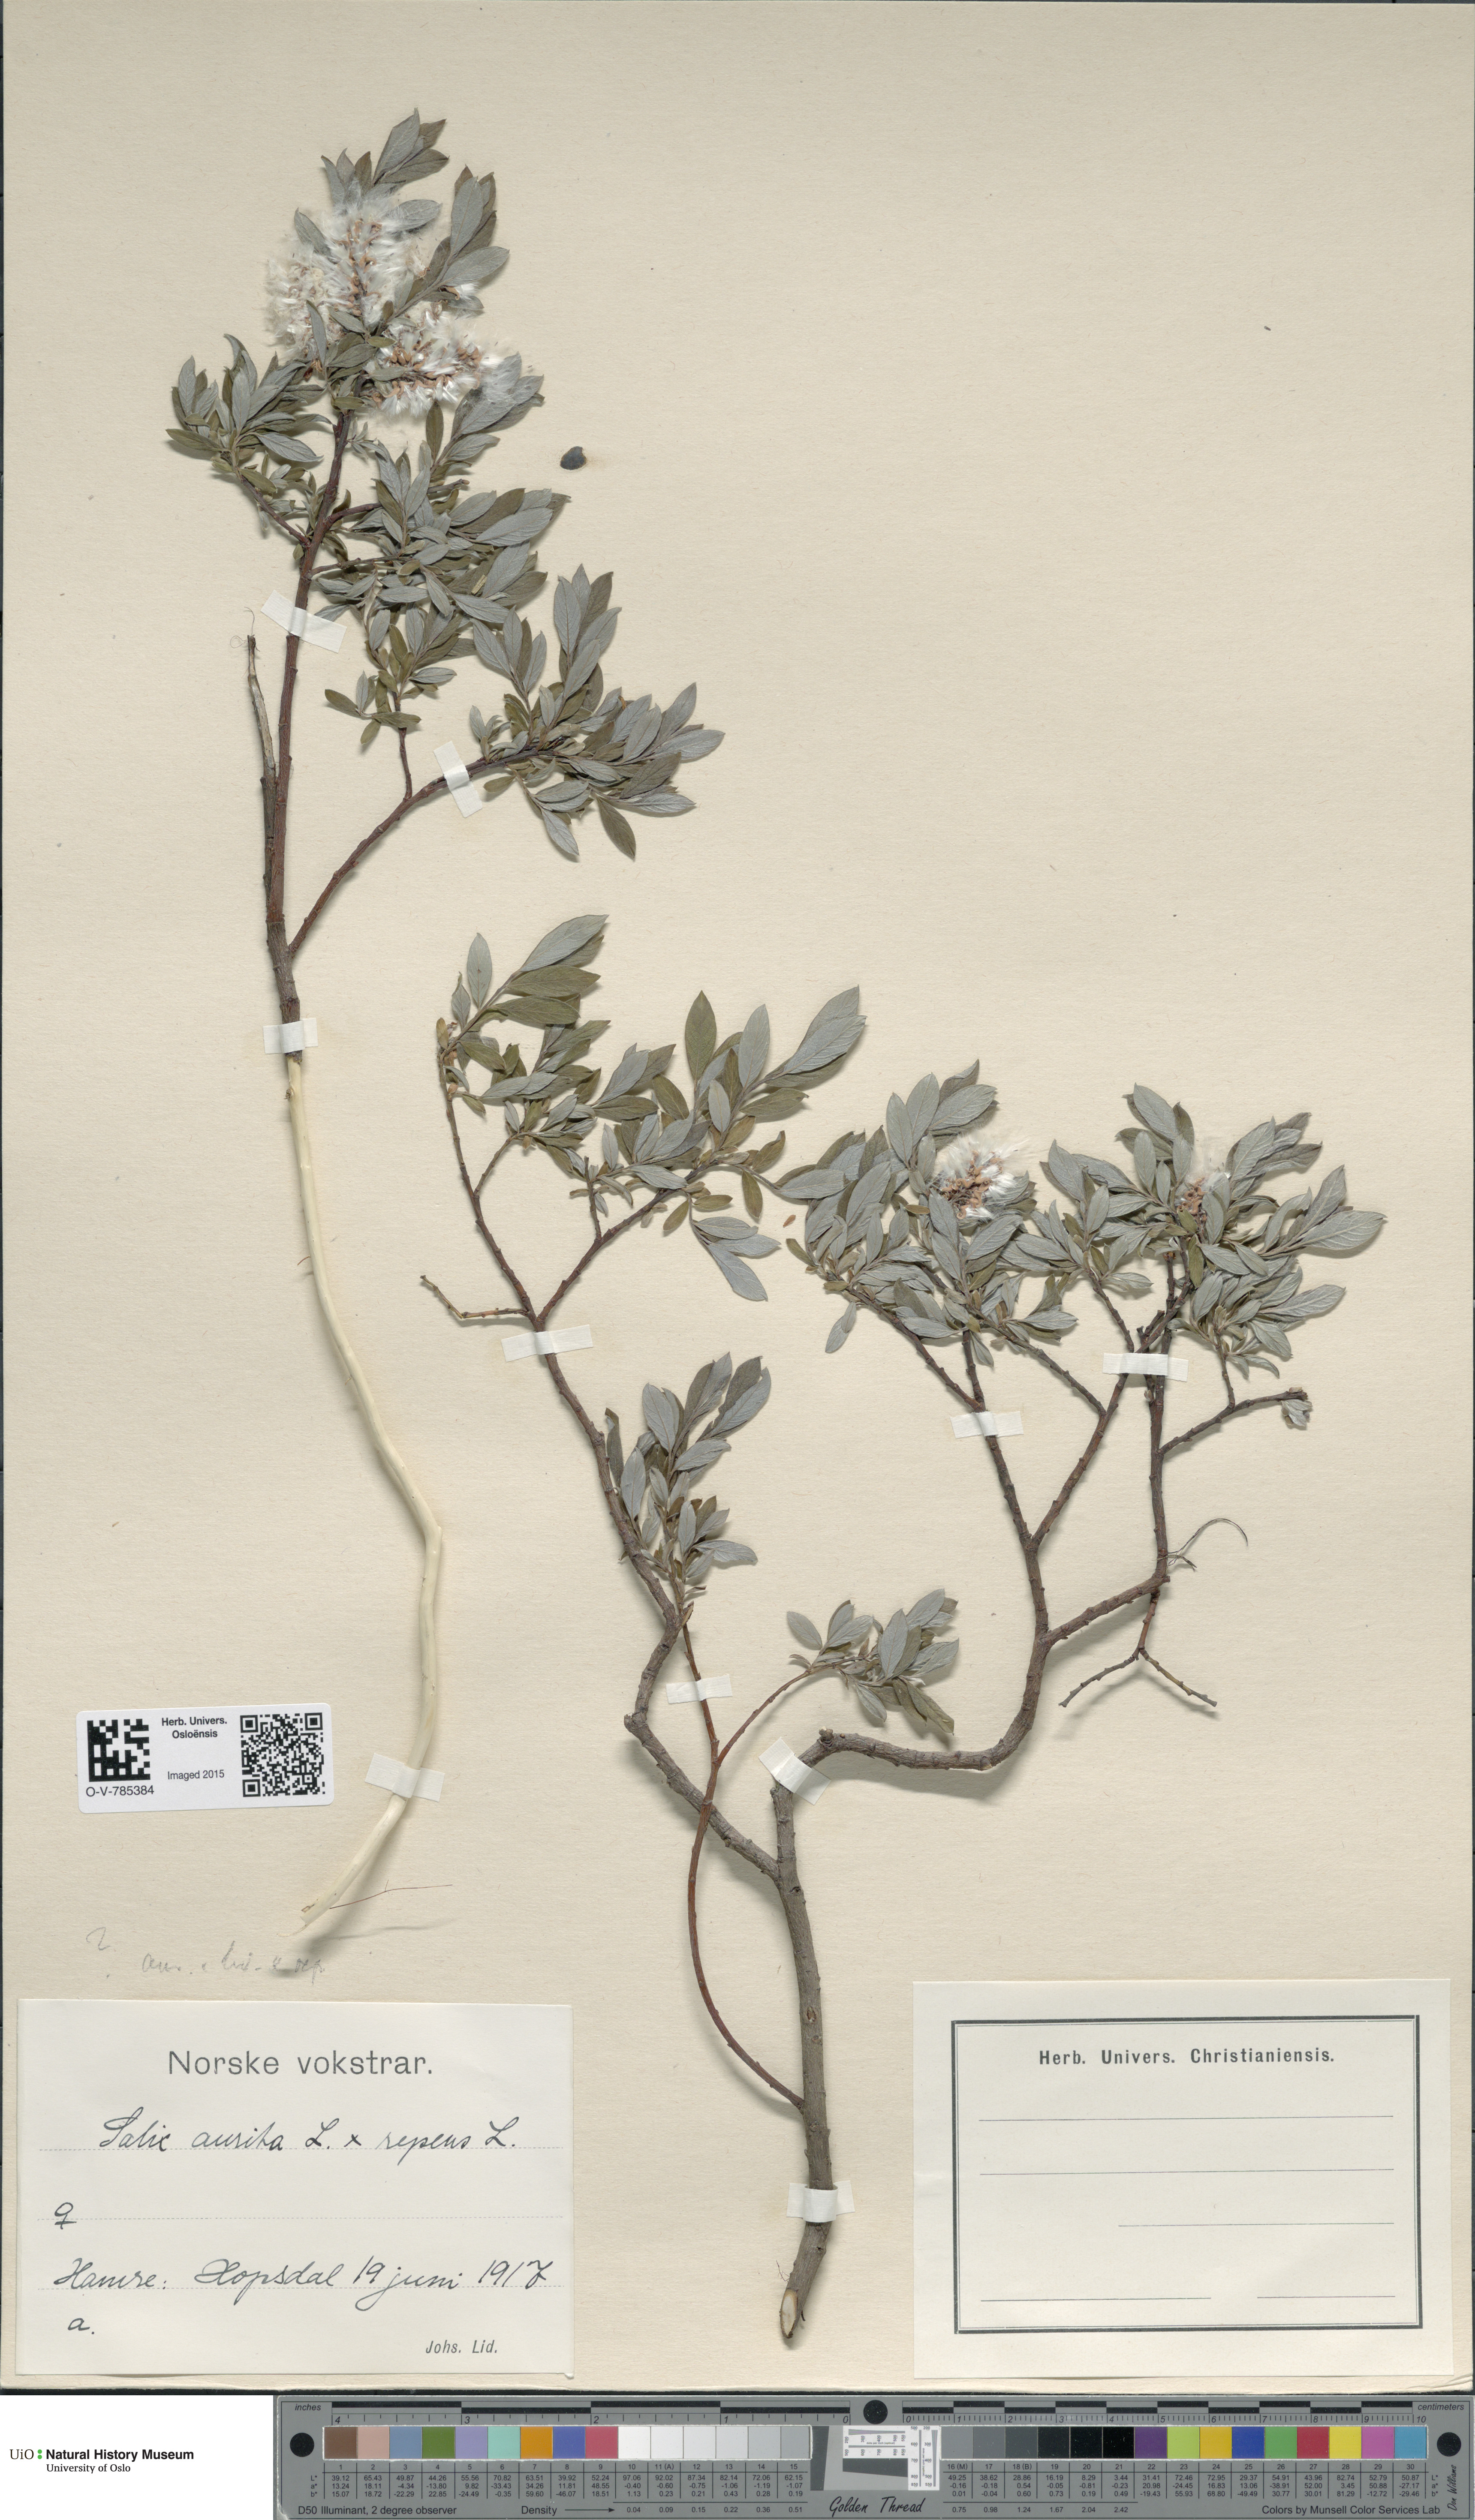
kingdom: Plantae
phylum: Tracheophyta
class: Magnoliopsida
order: Malpighiales
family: Salicaceae
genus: Salix
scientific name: Salix
